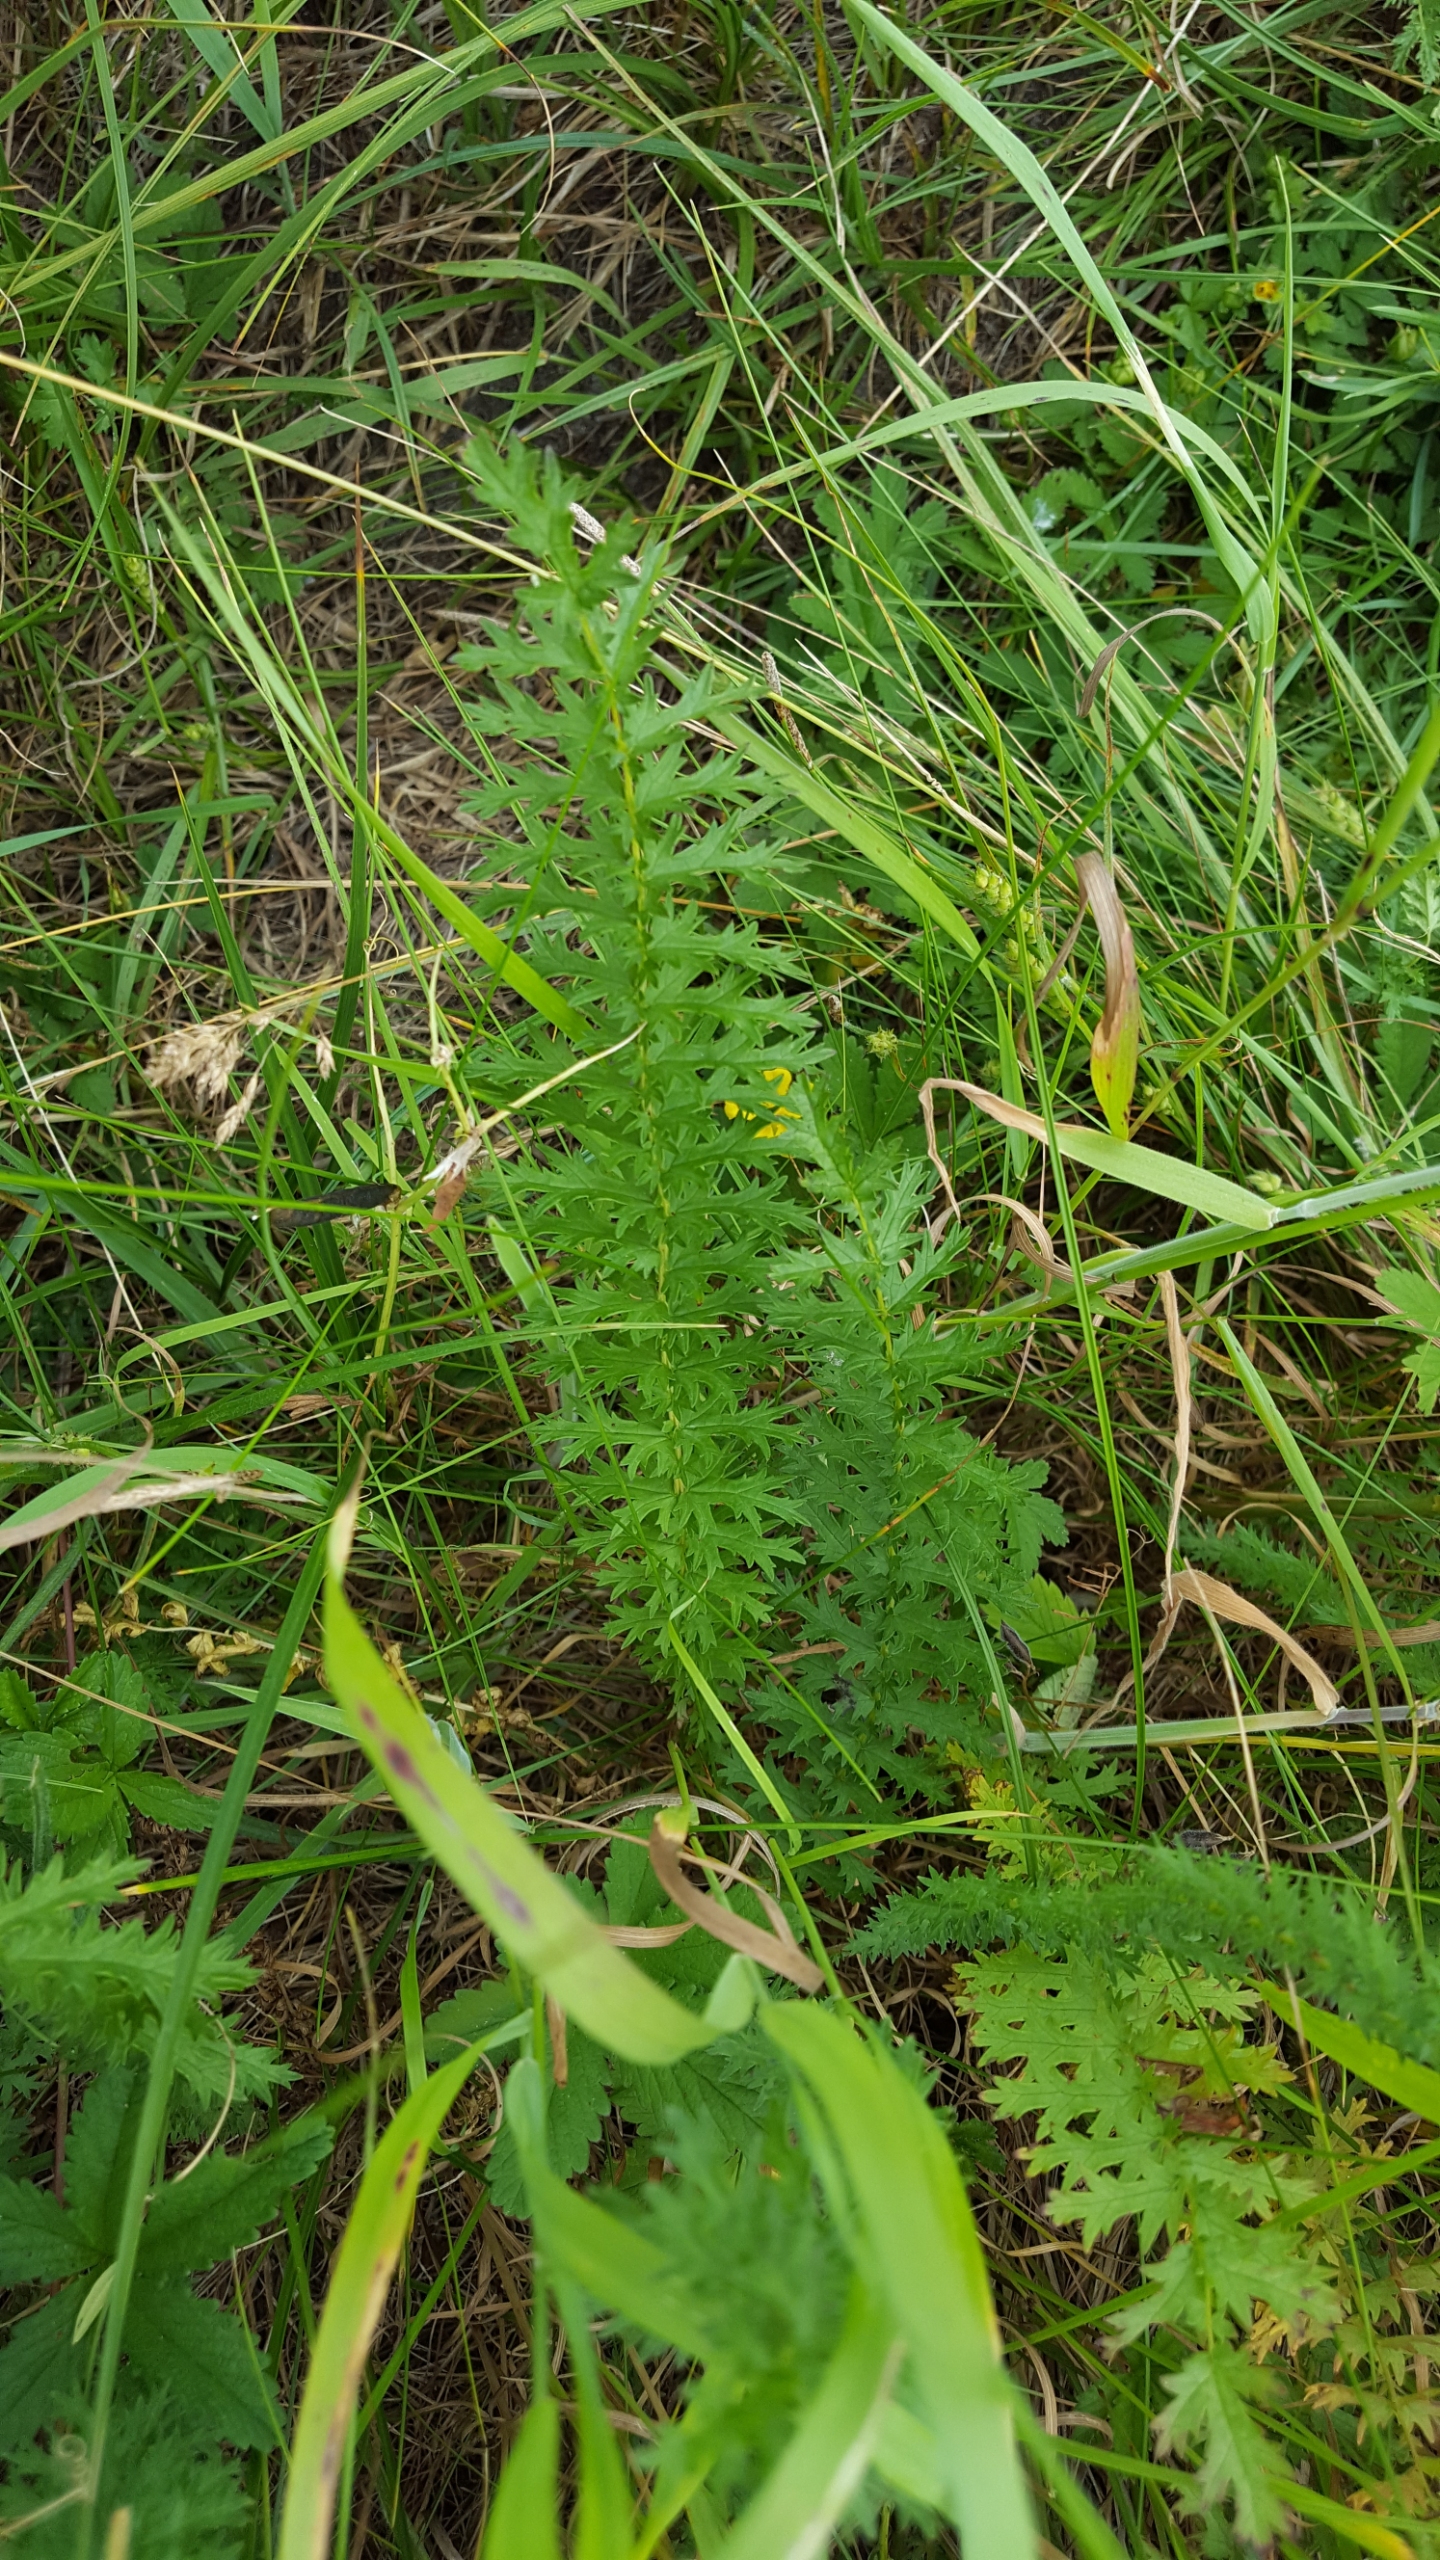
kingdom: Plantae
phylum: Tracheophyta
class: Magnoliopsida
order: Rosales
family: Rosaceae
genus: Filipendula
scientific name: Filipendula vulgaris
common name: Knoldet mjødurt
